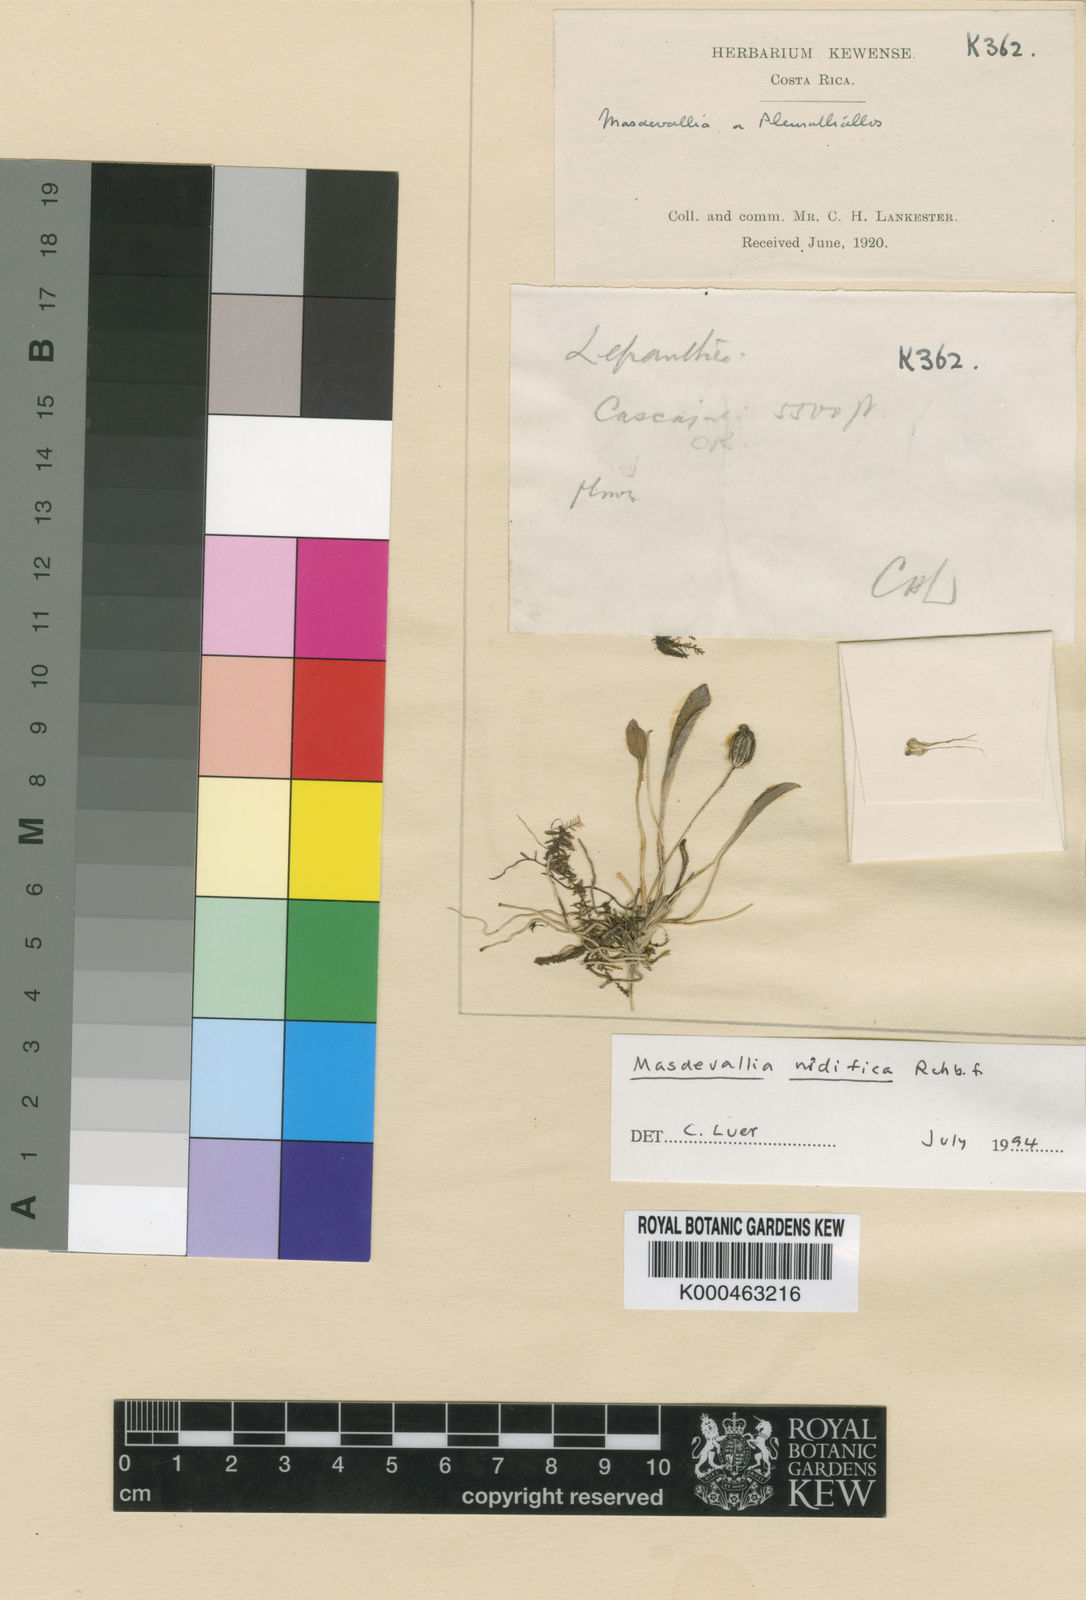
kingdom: Plantae
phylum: Tracheophyta
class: Liliopsida
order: Asparagales
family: Orchidaceae
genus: Masdevallia
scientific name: Masdevallia nidifica
